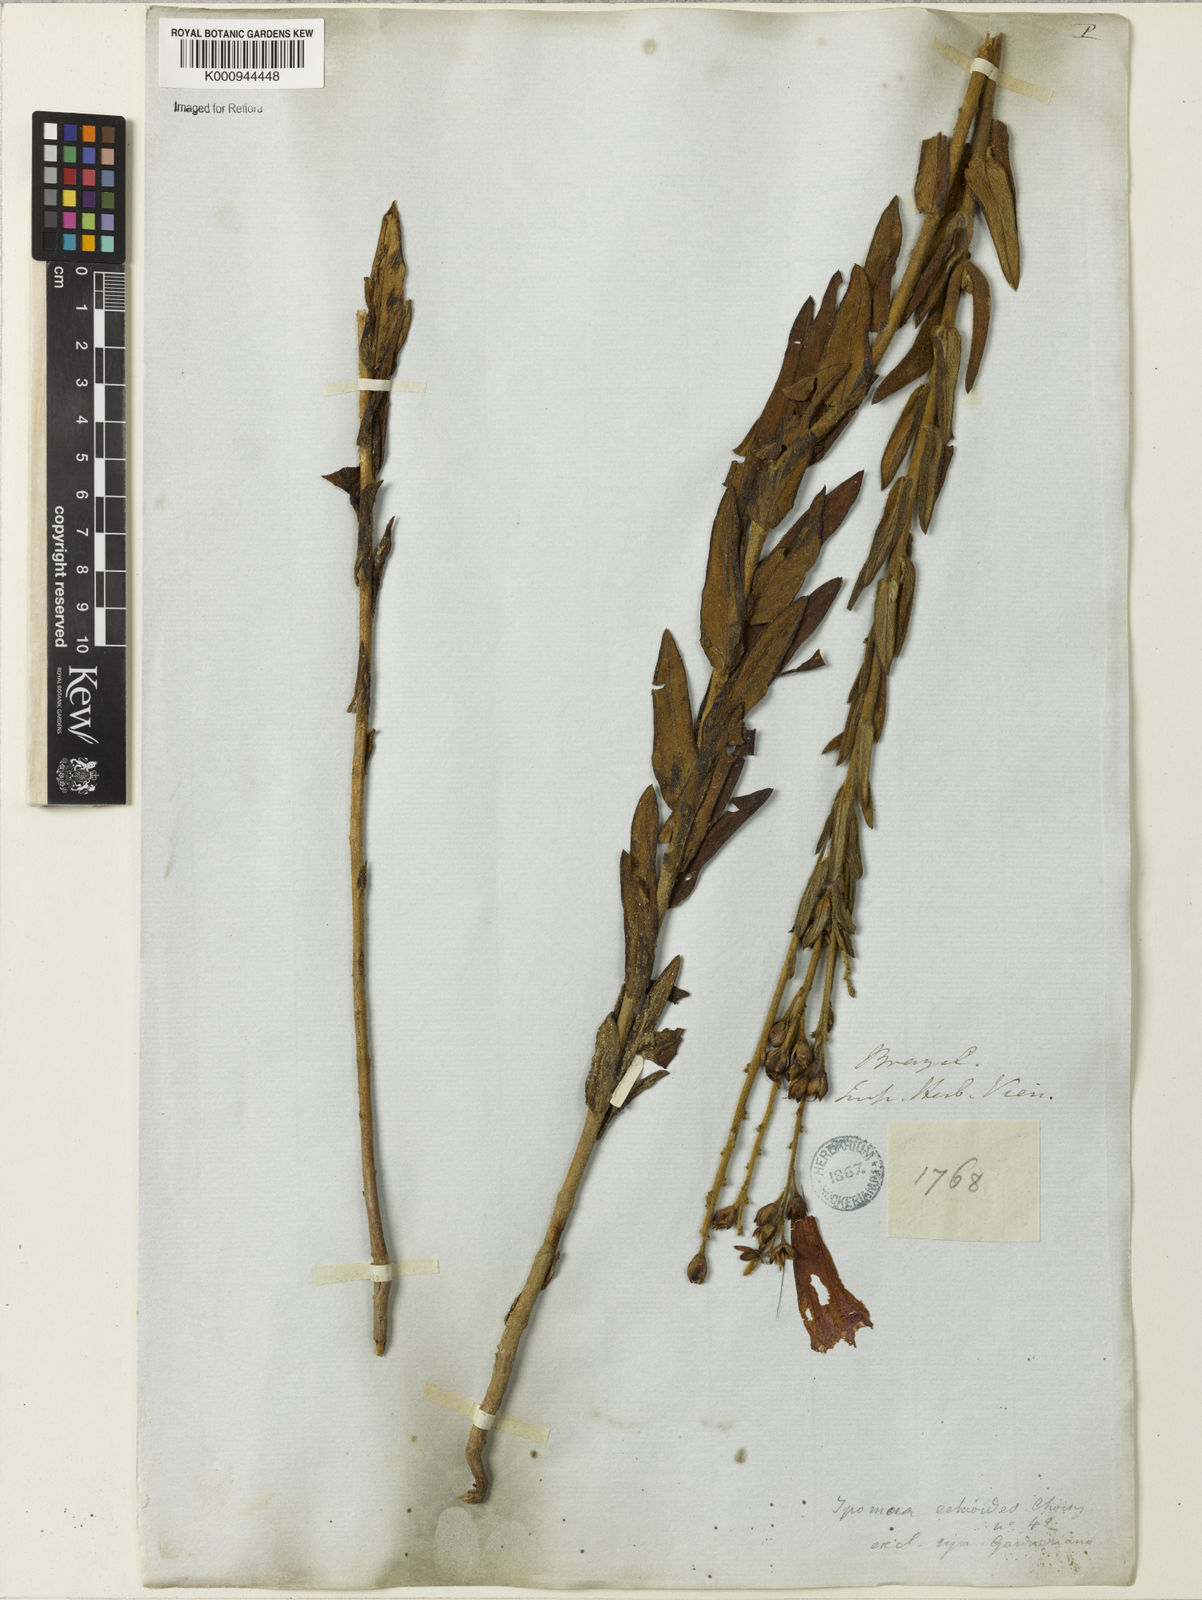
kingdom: Plantae
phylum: Tracheophyta
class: Magnoliopsida
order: Solanales
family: Convolvulaceae
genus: Ipomoea
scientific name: Ipomoea paulistana
